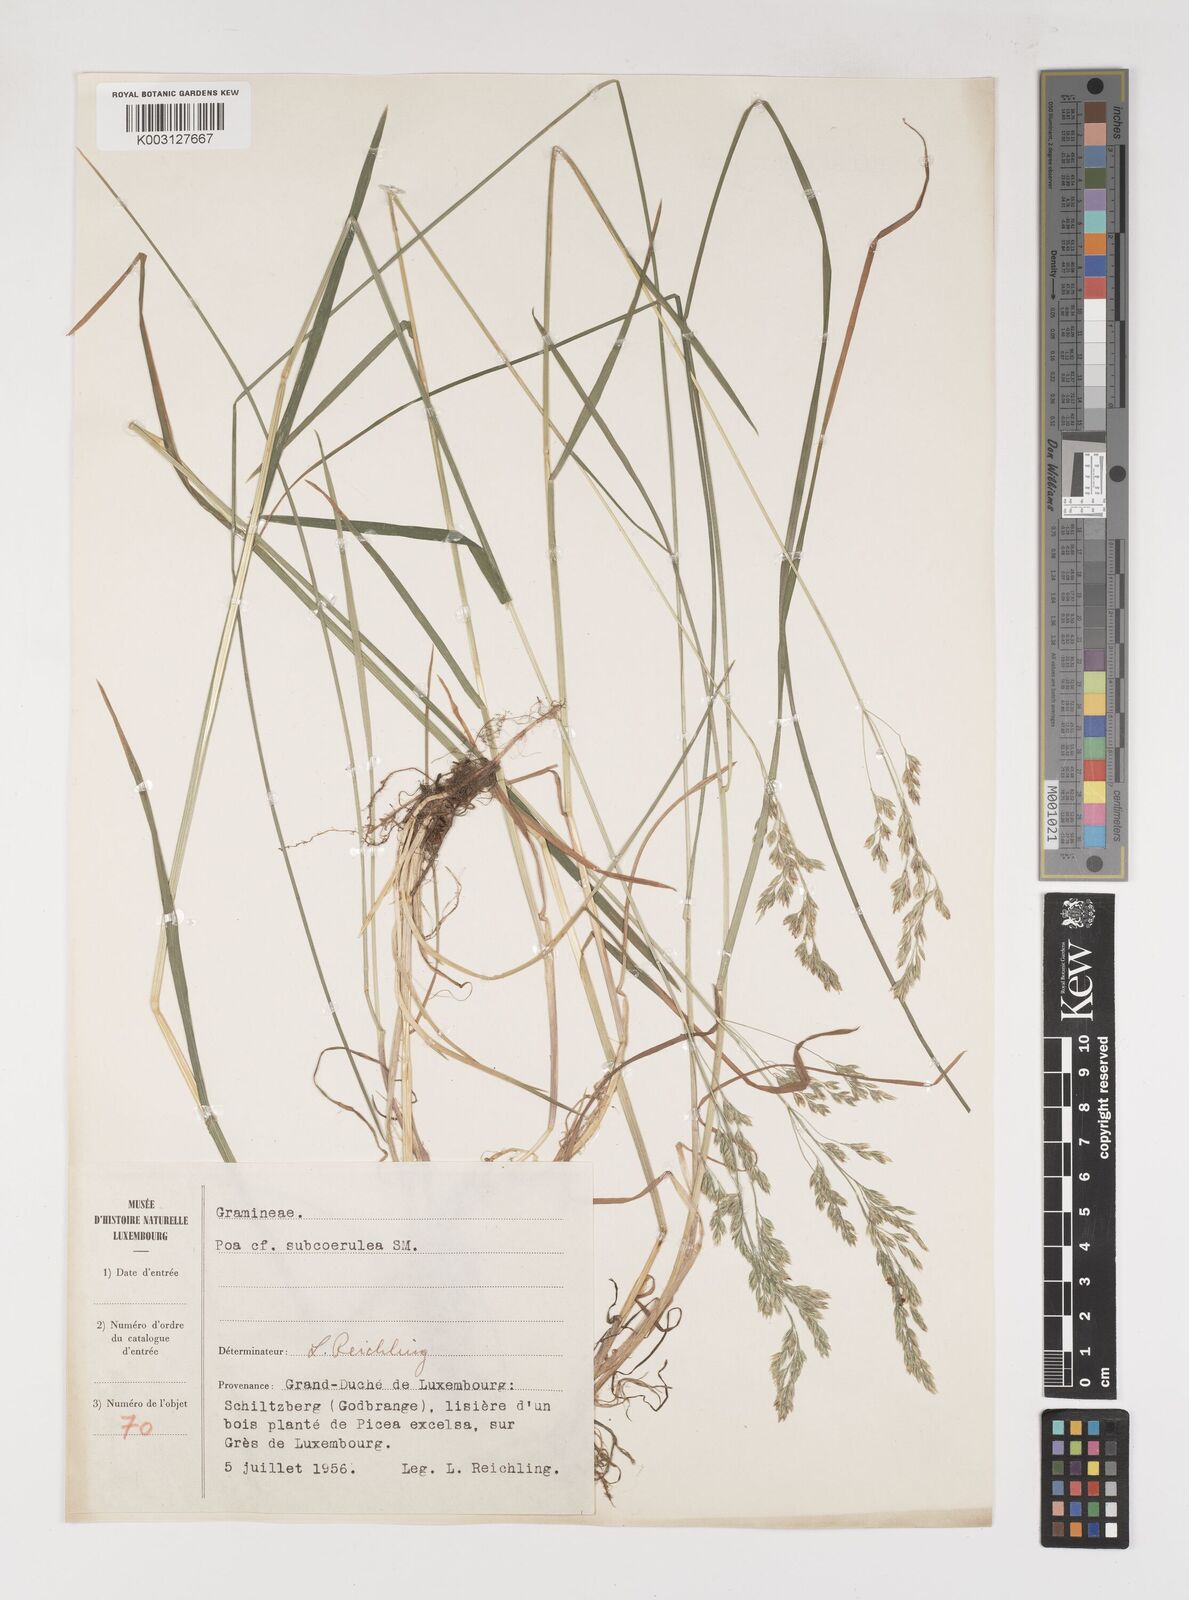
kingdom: Plantae
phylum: Tracheophyta
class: Liliopsida
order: Poales
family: Poaceae
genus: Poa
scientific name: Poa
